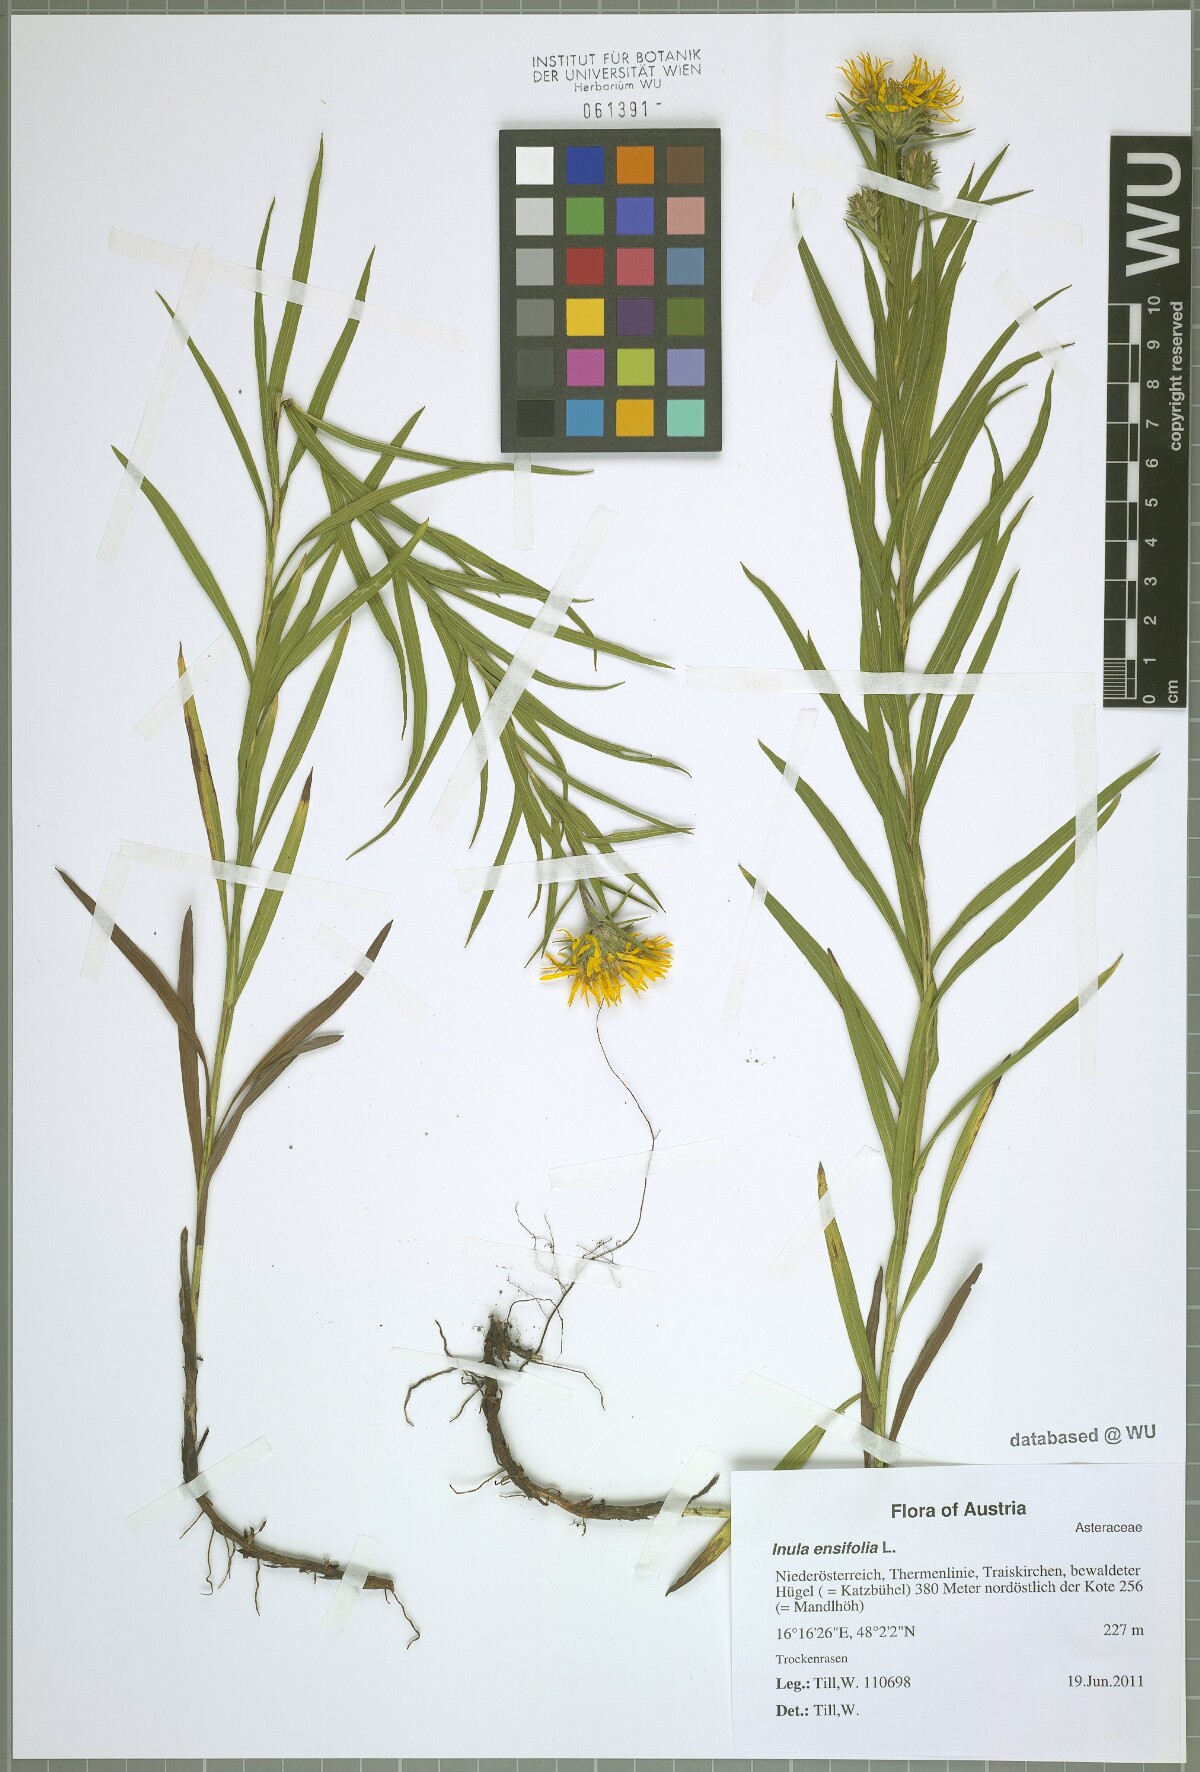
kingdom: Plantae
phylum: Tracheophyta
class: Magnoliopsida
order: Asterales
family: Asteraceae
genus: Pentanema
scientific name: Pentanema ensifolium
